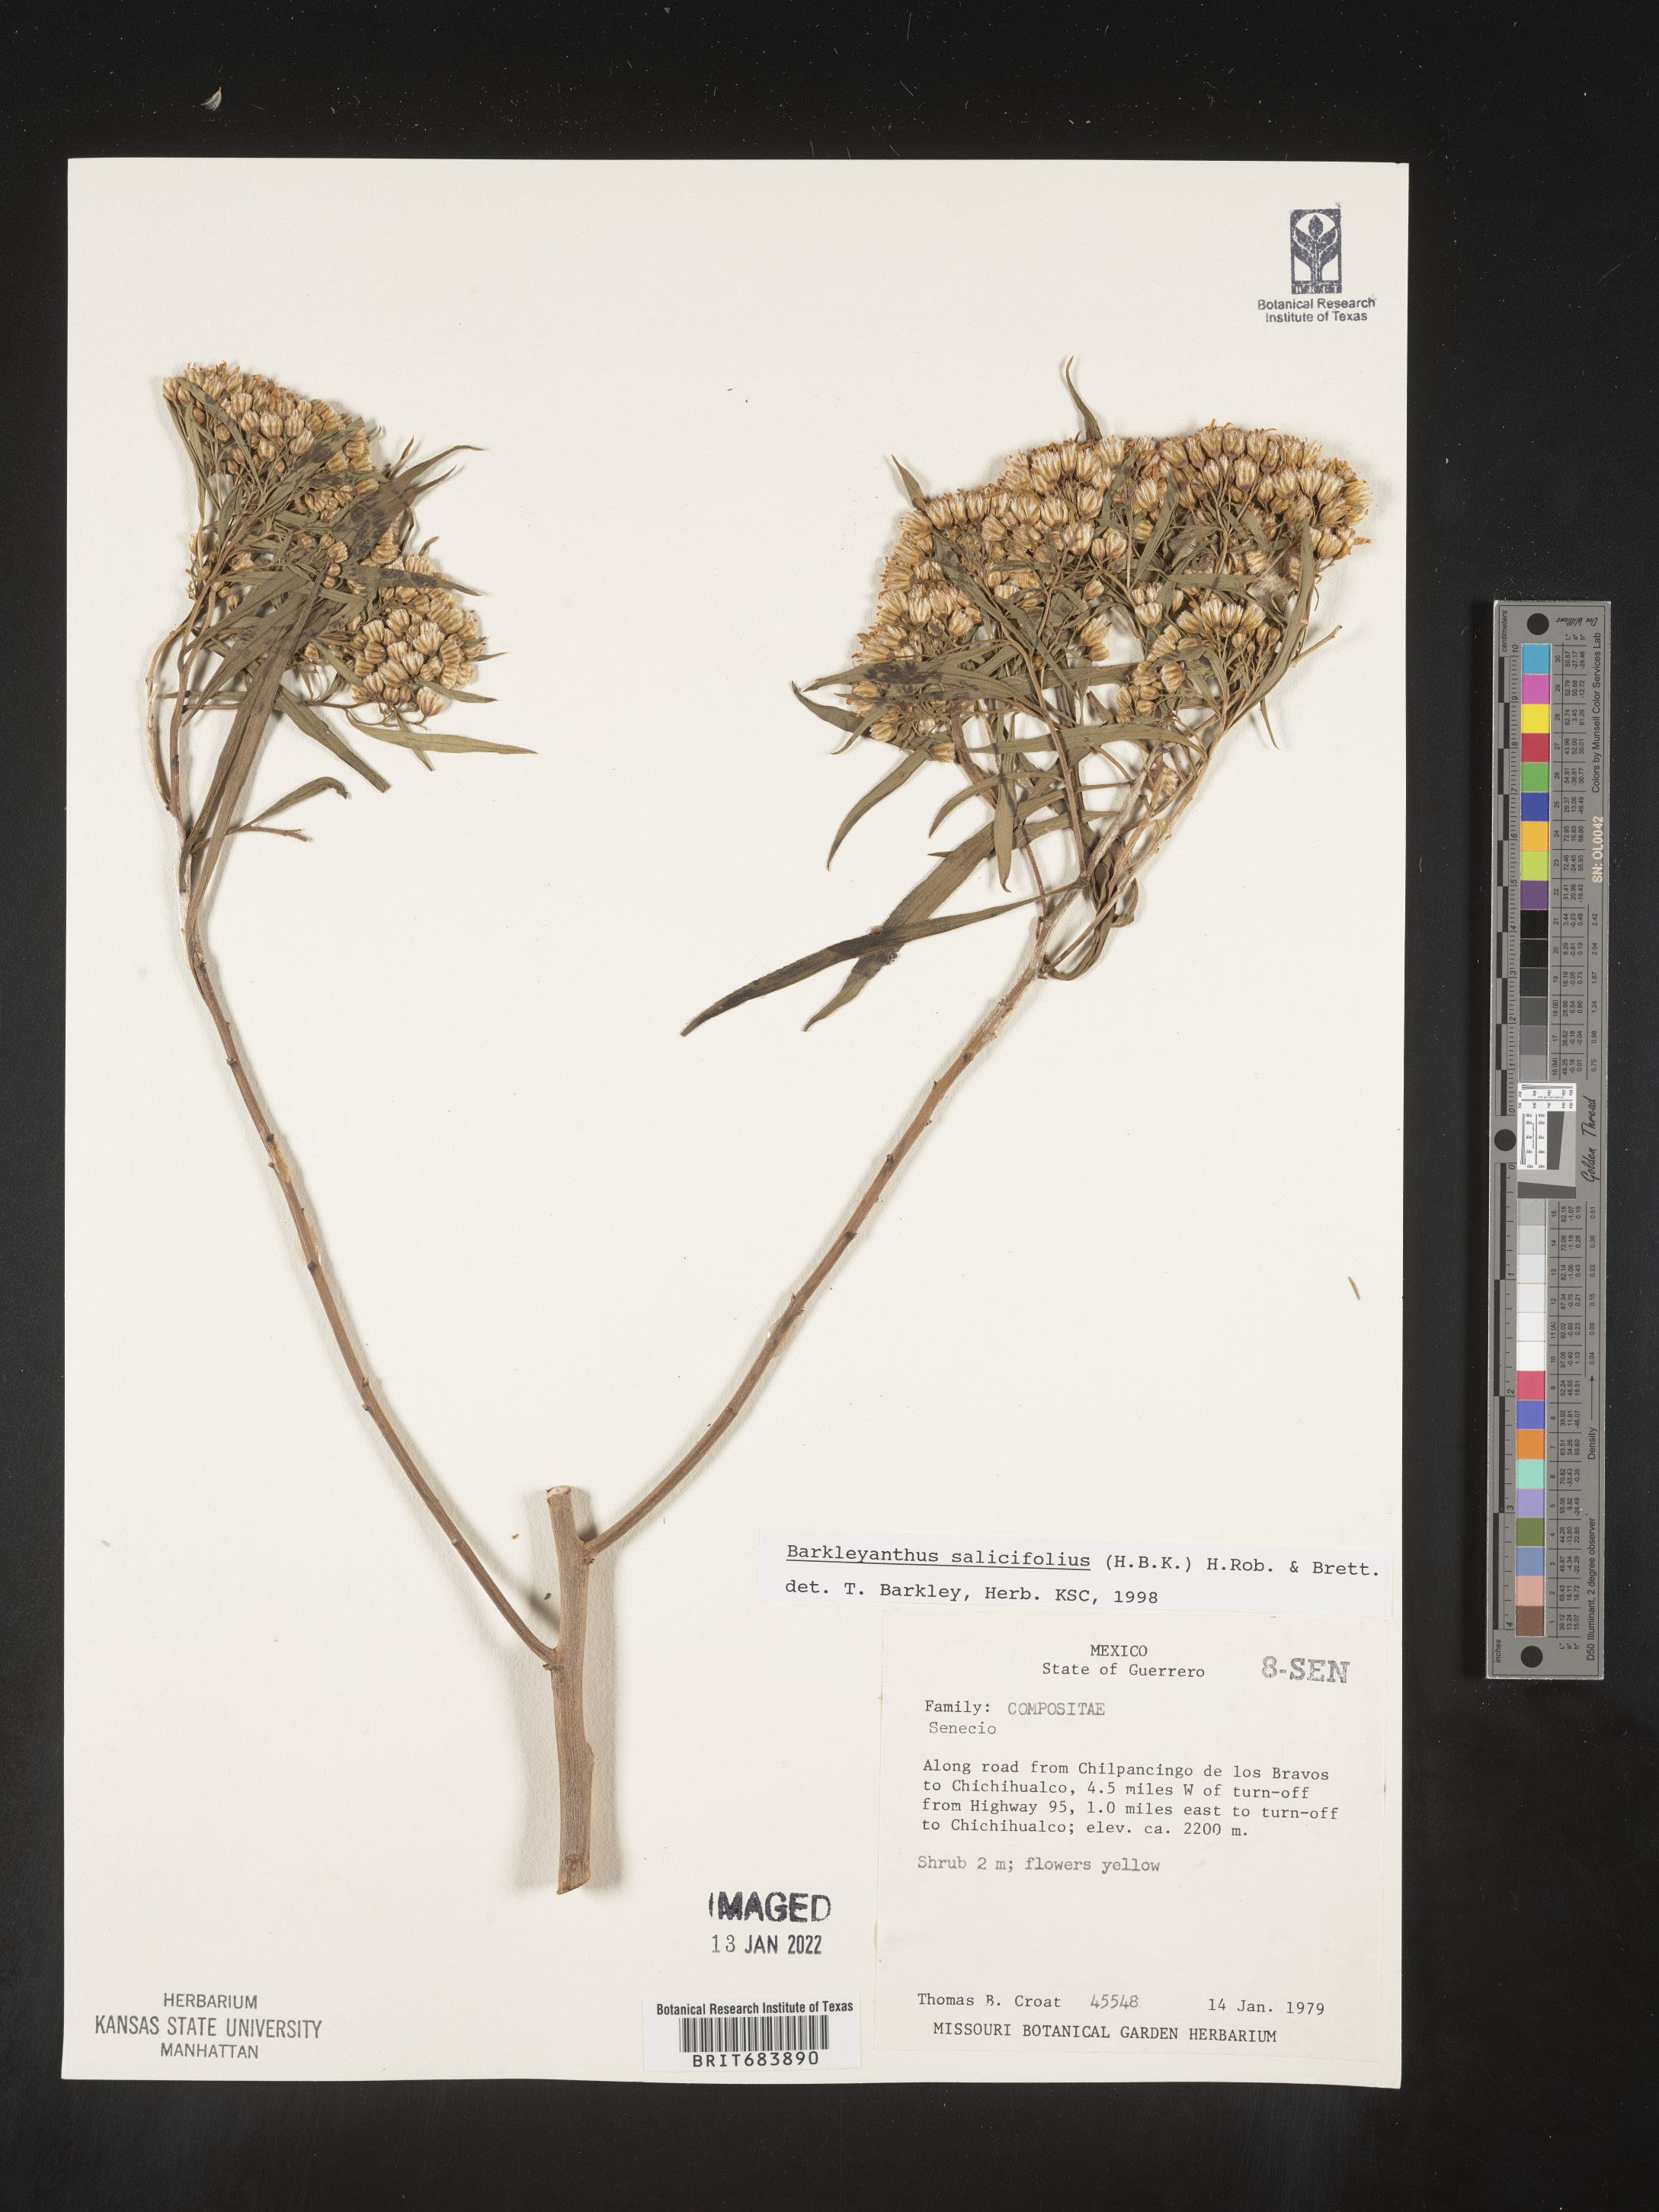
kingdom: Plantae
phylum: Tracheophyta
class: Magnoliopsida
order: Asterales
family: Asteraceae
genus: Barkleyanthus
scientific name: Barkleyanthus
